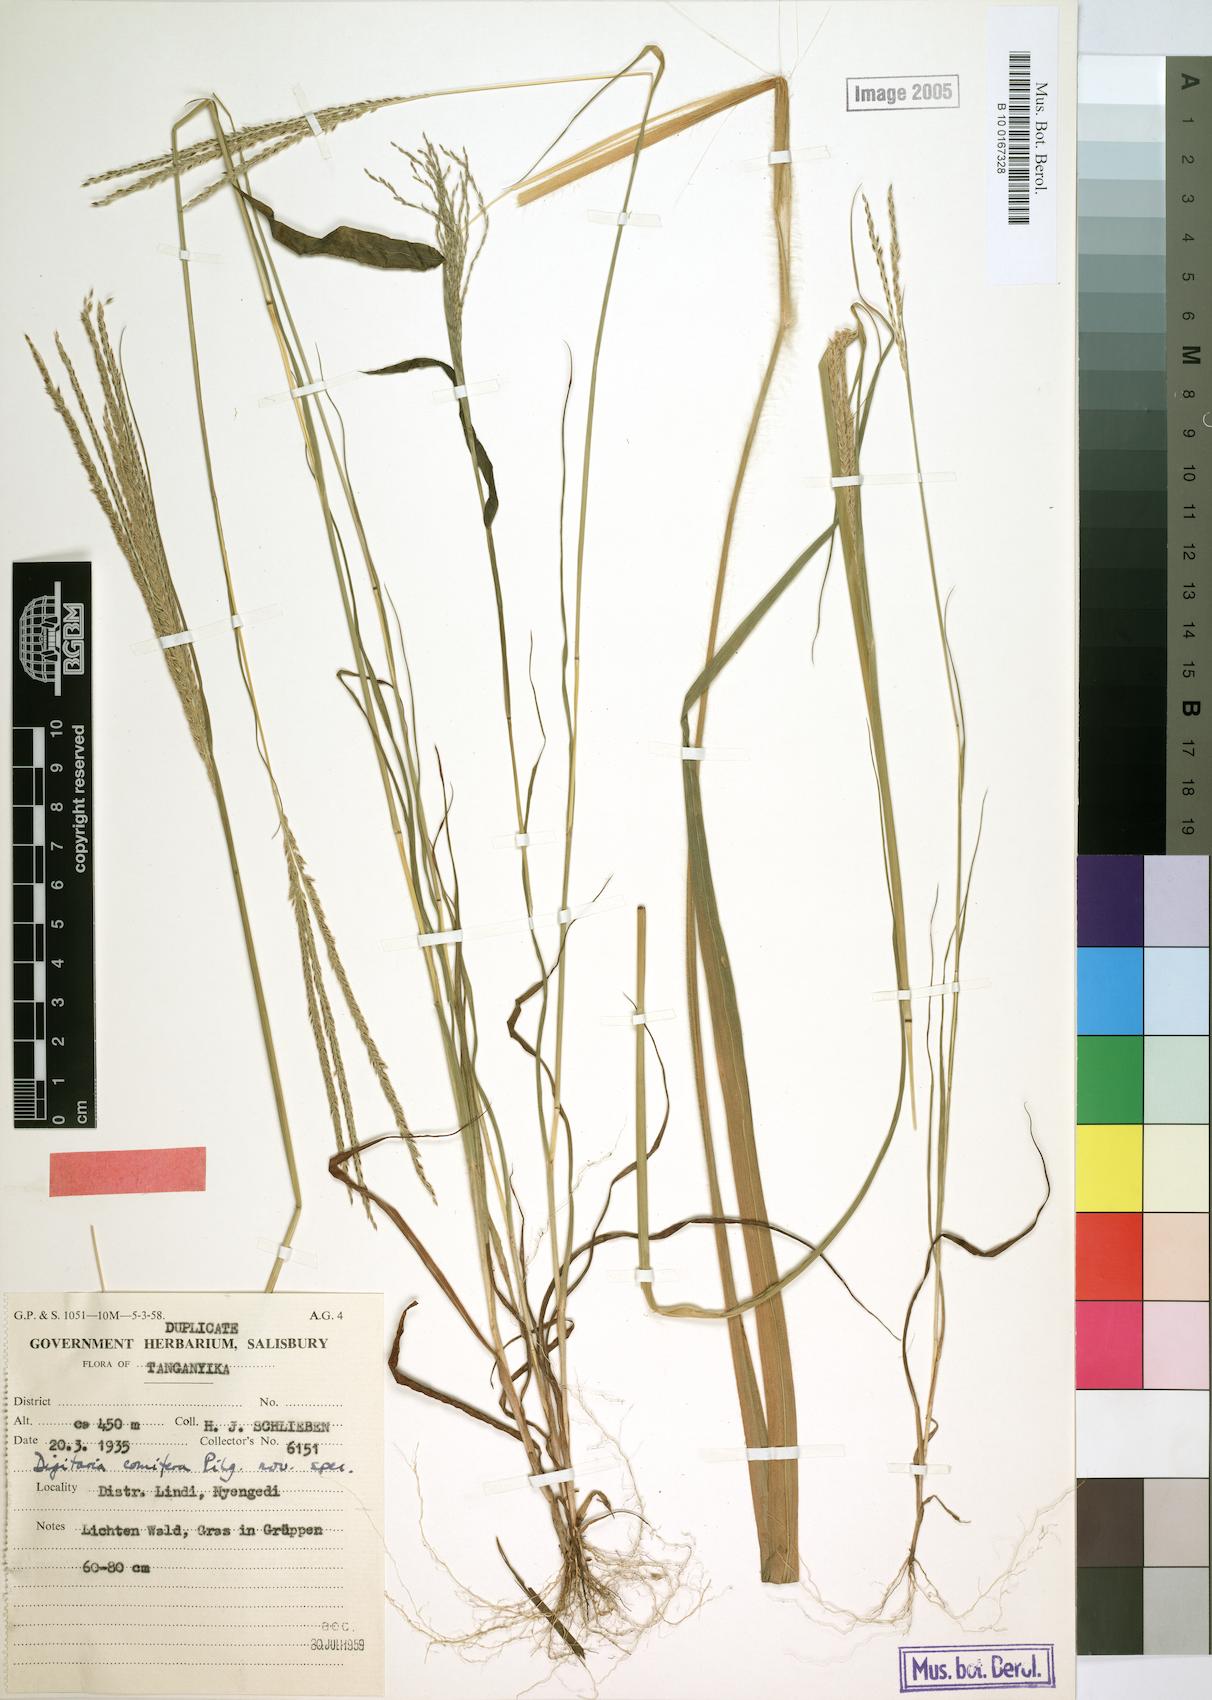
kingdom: Plantae
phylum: Tracheophyta
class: Liliopsida
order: Poales
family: Poaceae
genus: Digitaria
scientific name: Digitaria comifera
